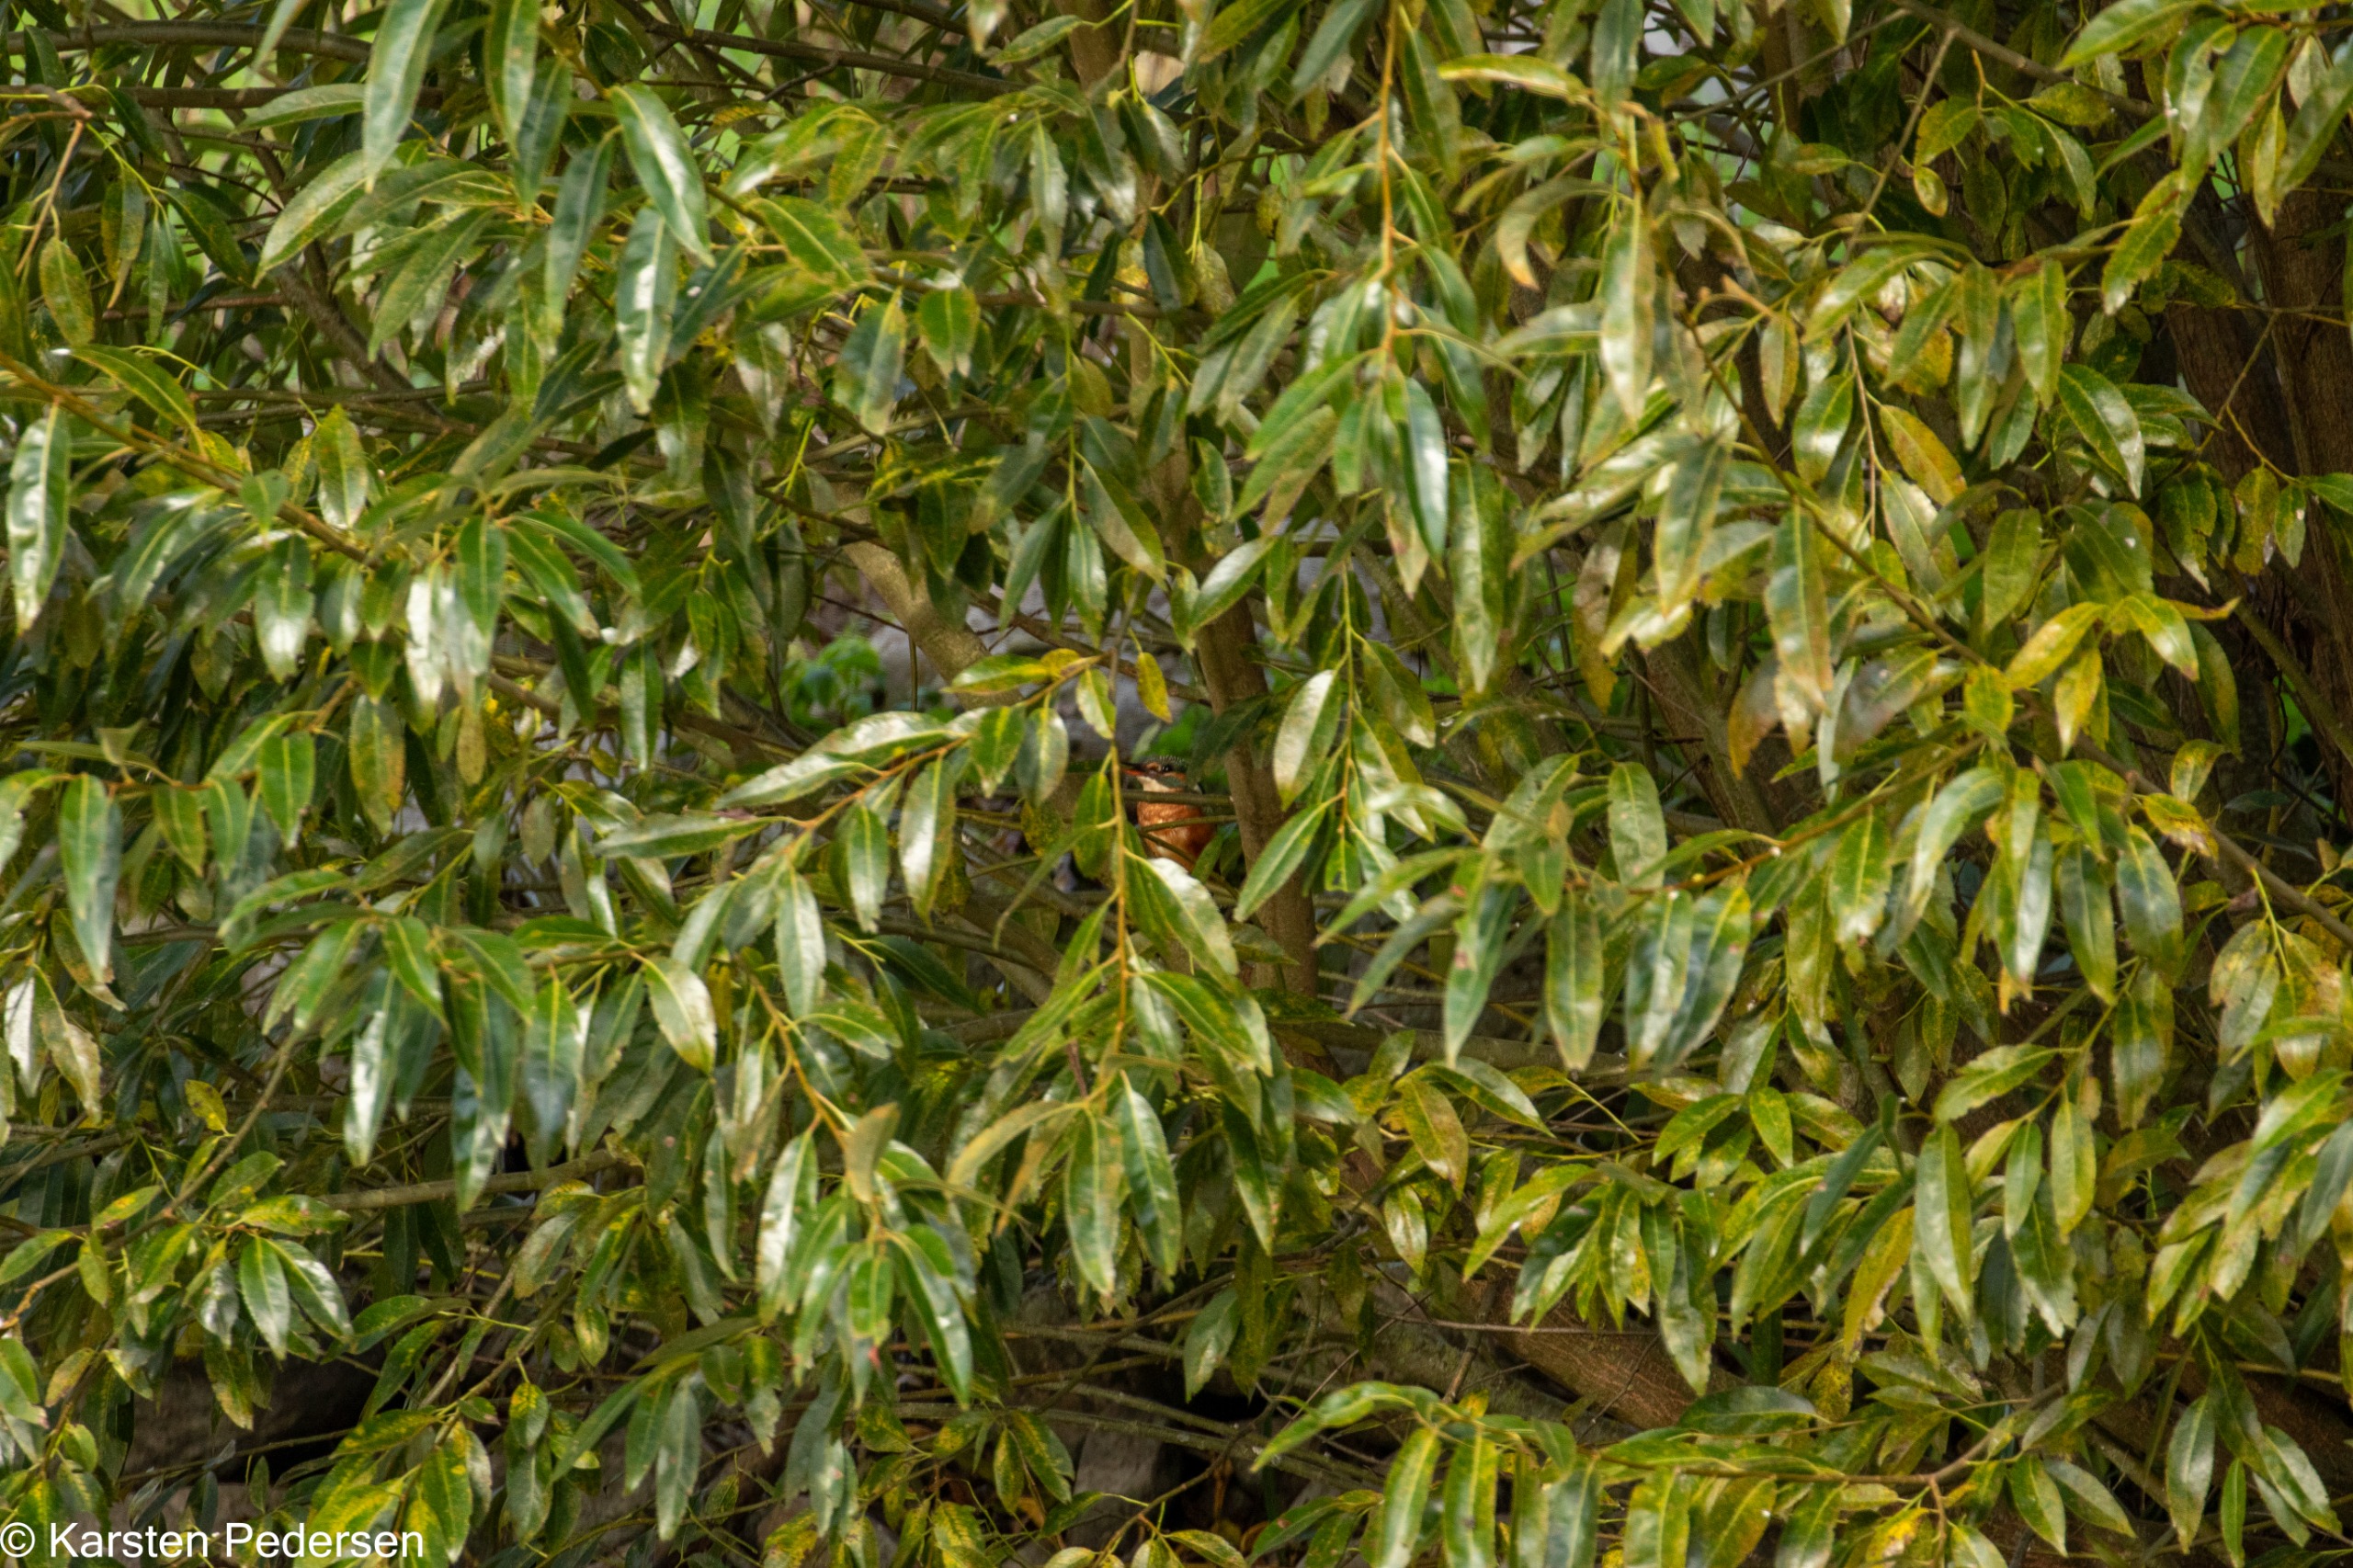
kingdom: Animalia
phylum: Chordata
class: Aves
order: Coraciiformes
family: Alcedinidae
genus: Alcedo
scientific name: Alcedo atthis
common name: Isfugl
